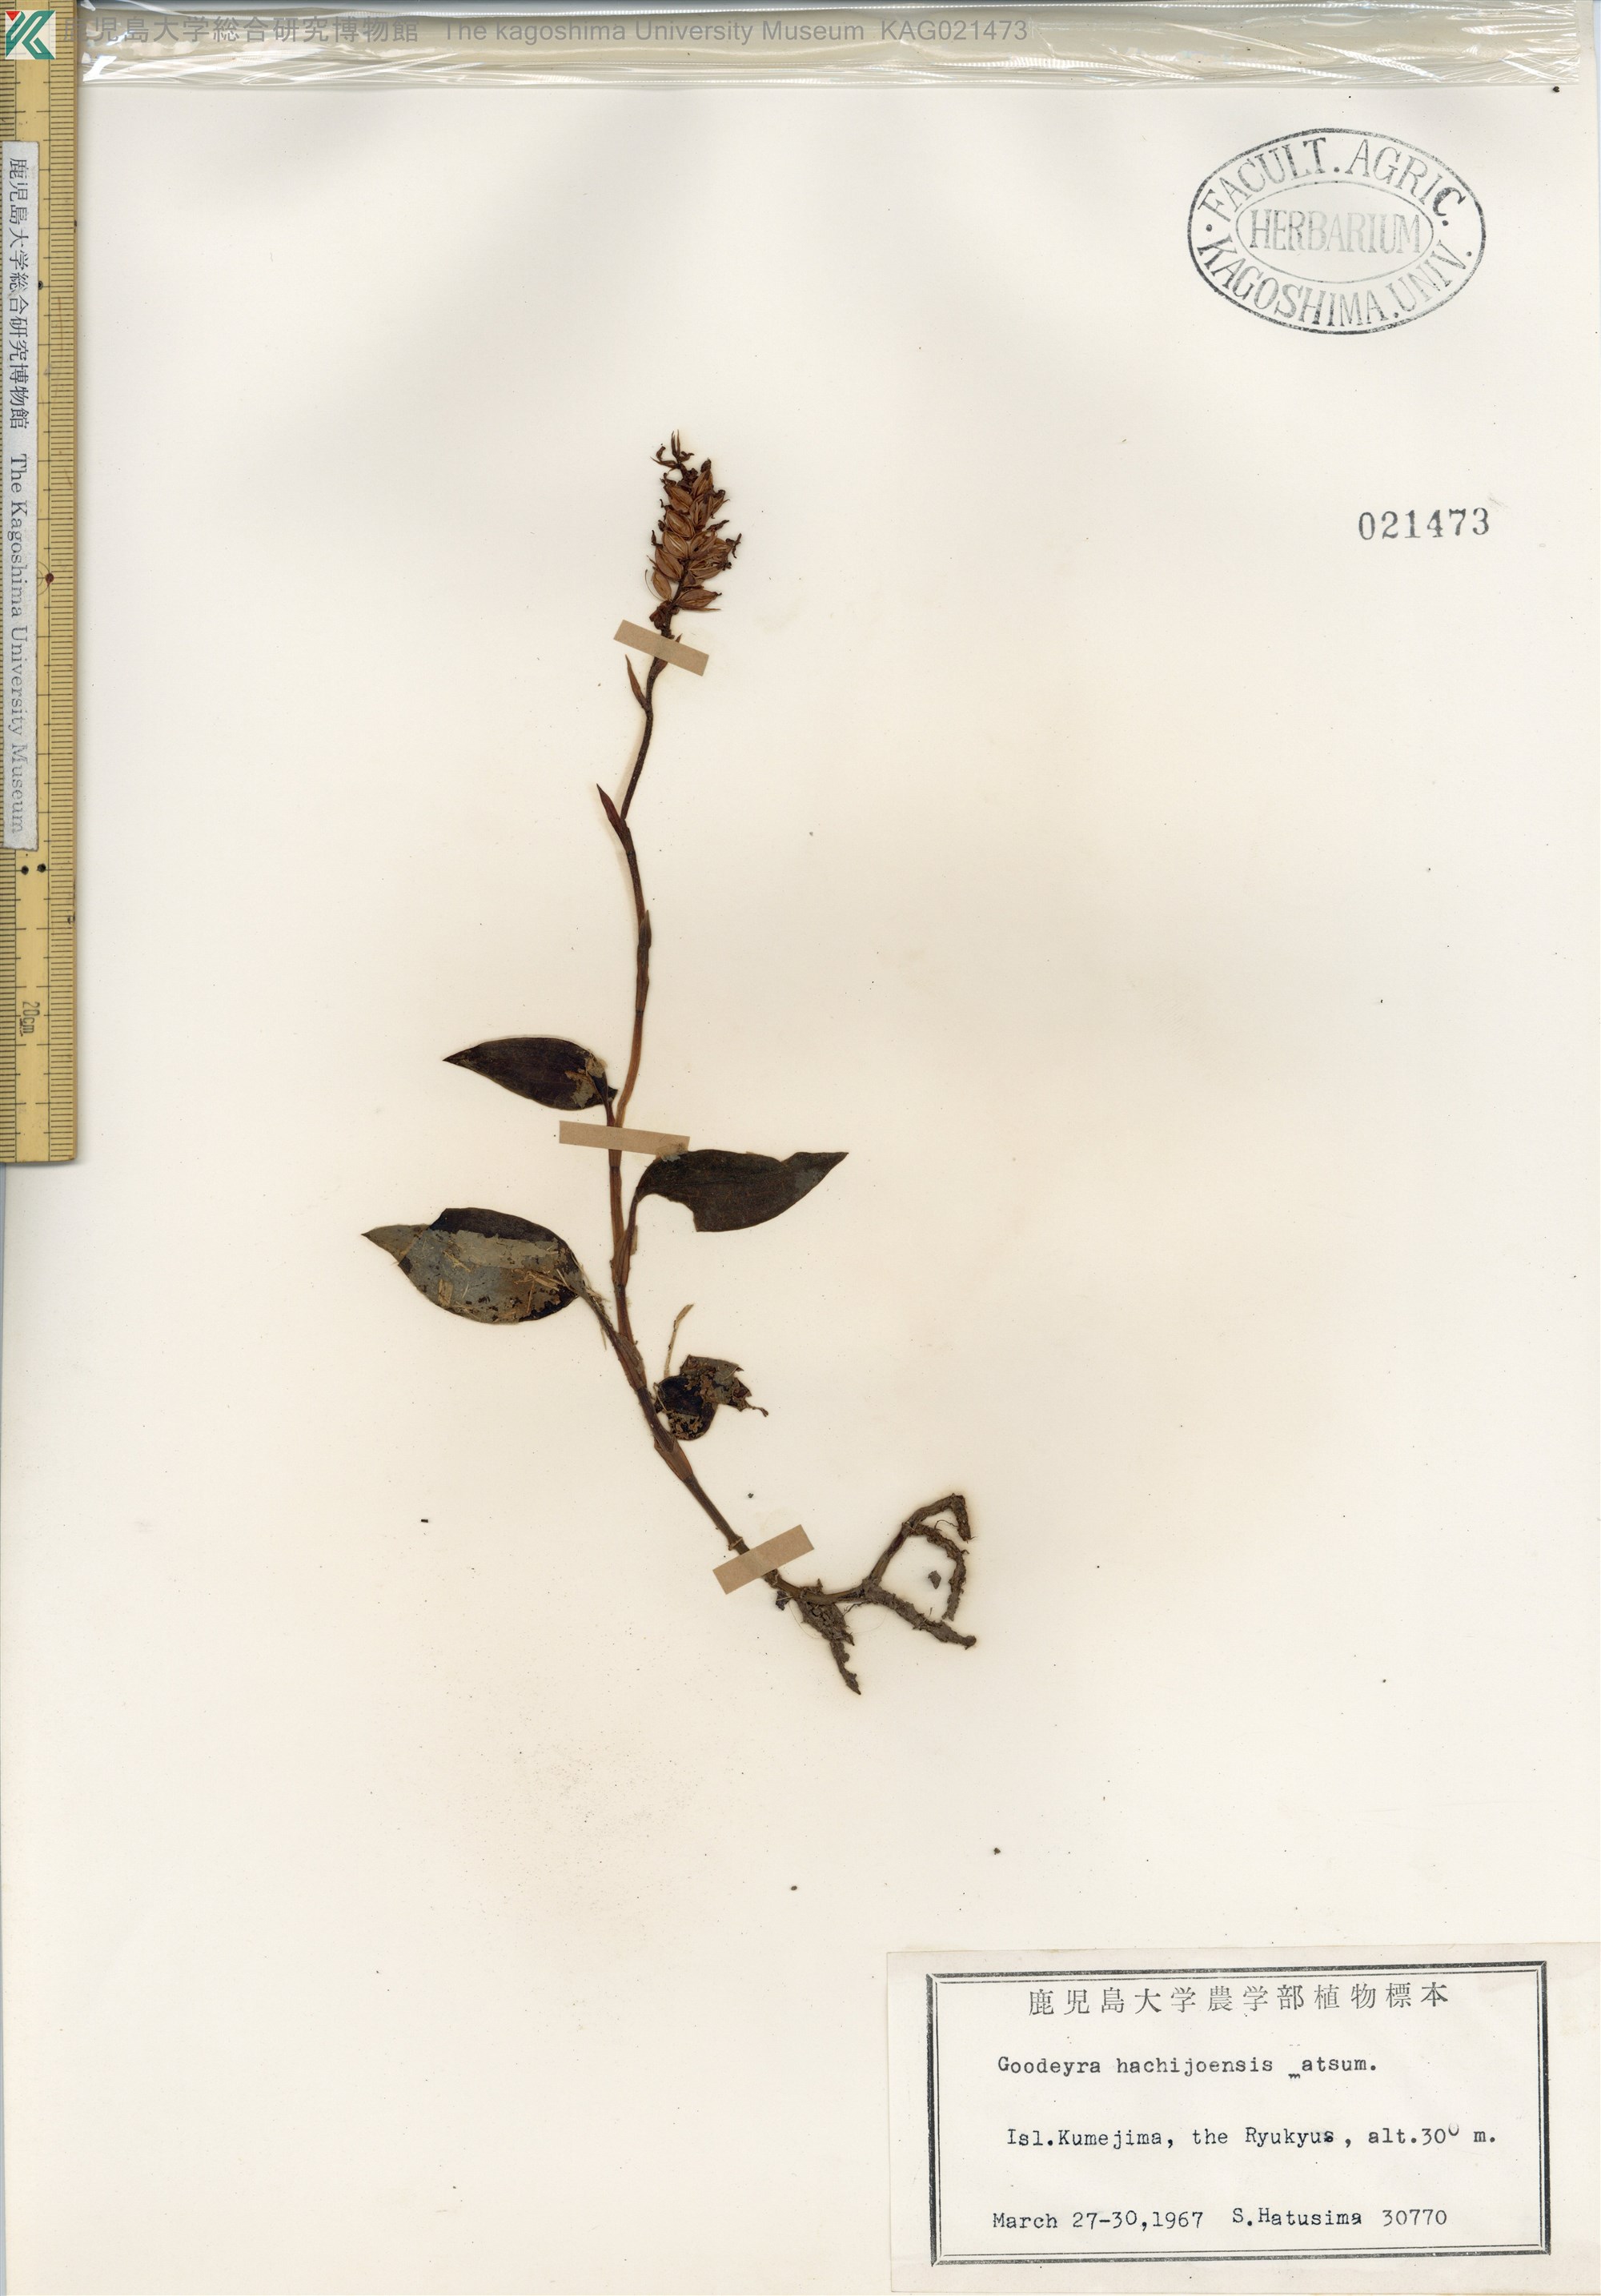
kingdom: Plantae
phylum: Tracheophyta
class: Liliopsida
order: Asparagales
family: Orchidaceae
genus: Goodyera
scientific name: Goodyera hachijoensis
